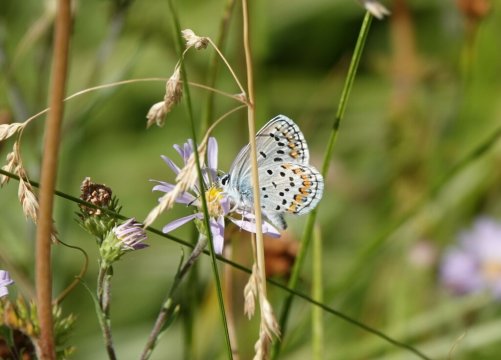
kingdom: Animalia
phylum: Arthropoda
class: Insecta
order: Lepidoptera
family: Lycaenidae
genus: Lycaeides
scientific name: Lycaeides melissa
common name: Melissa Blue
